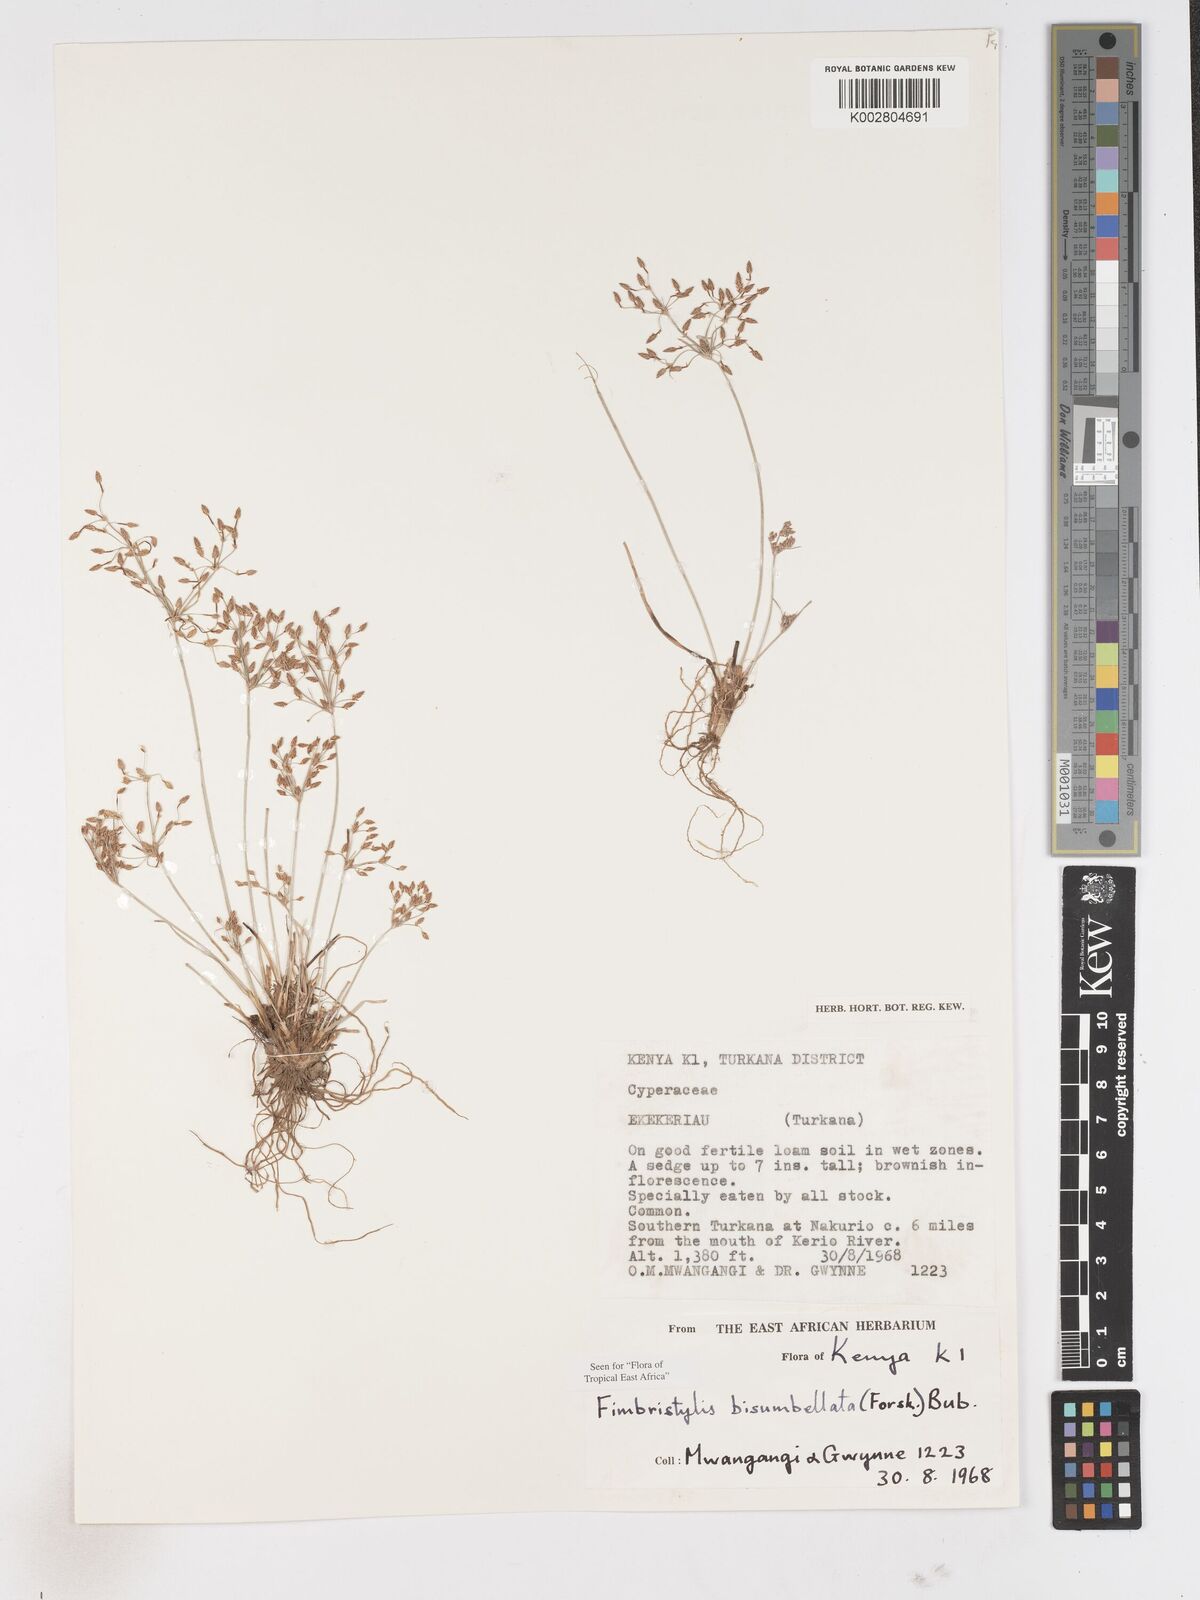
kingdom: Plantae
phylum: Tracheophyta
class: Liliopsida
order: Poales
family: Cyperaceae
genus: Fimbristylis
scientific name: Fimbristylis bisumbellata
